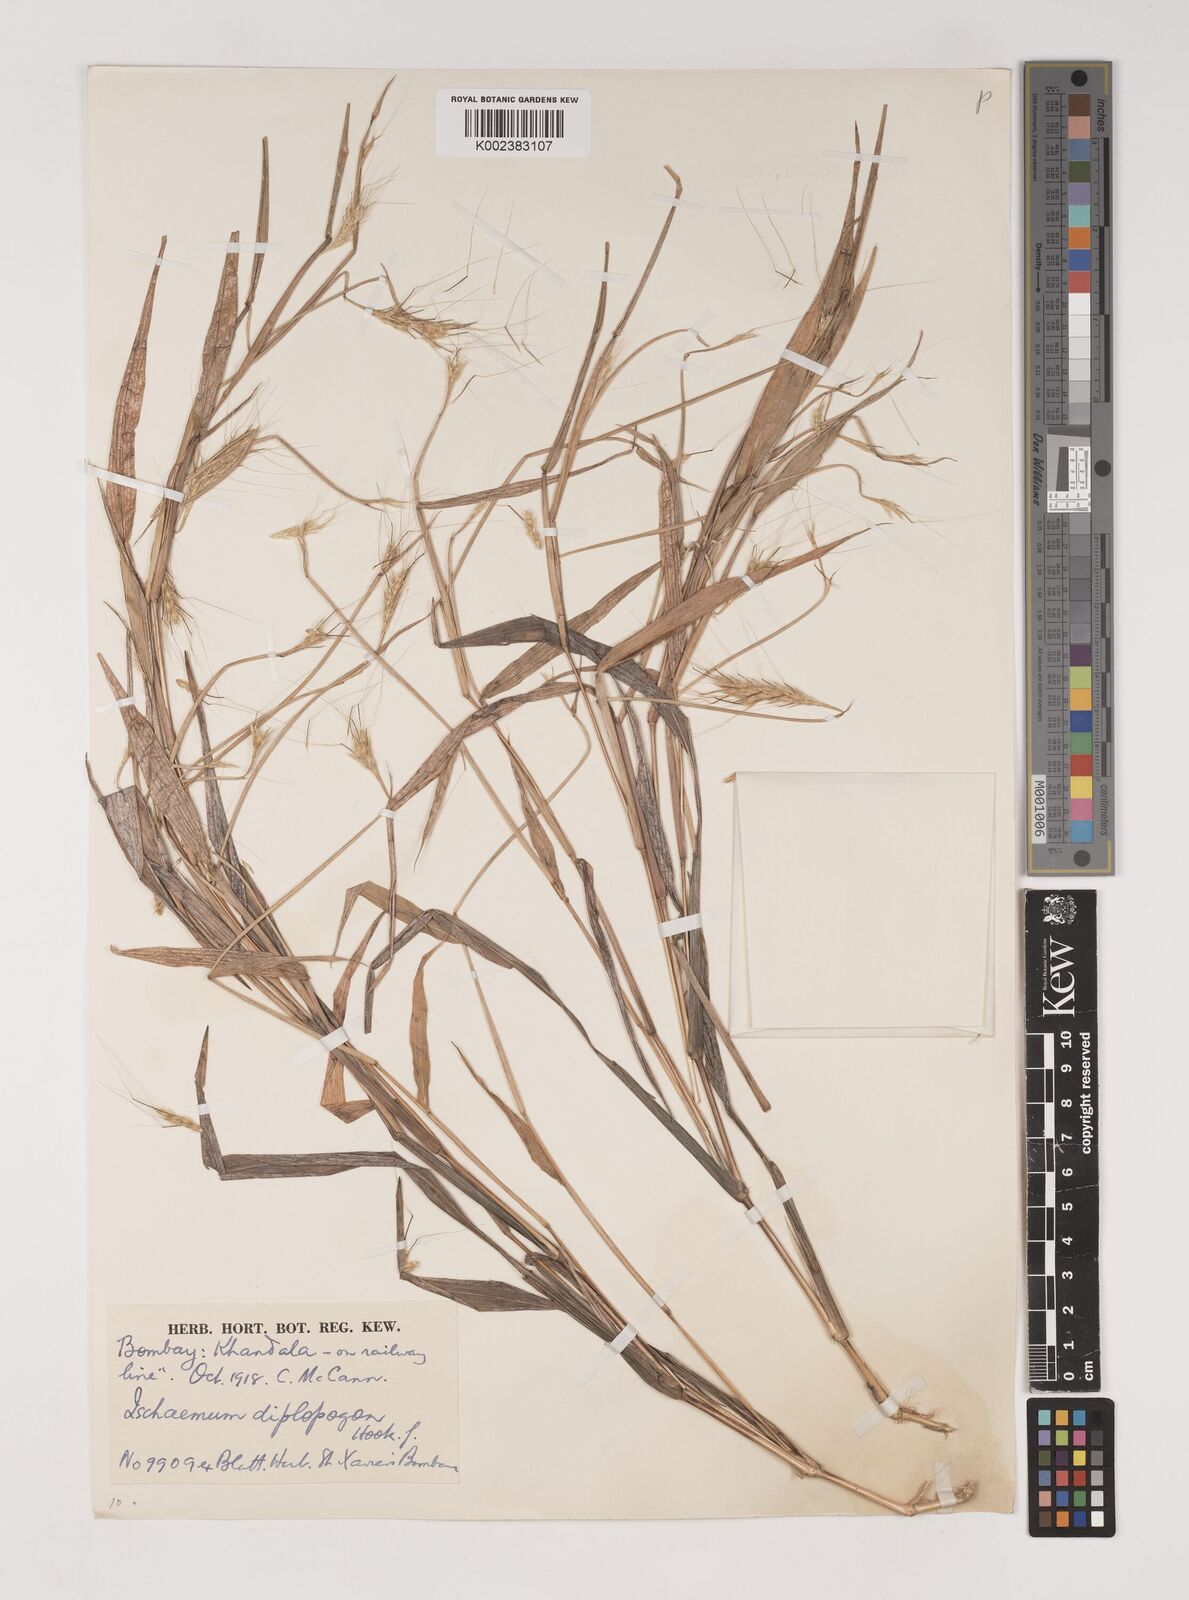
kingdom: Plantae
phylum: Tracheophyta
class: Liliopsida
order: Poales
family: Poaceae
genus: Ischaemum
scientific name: Ischaemum diplopogon
